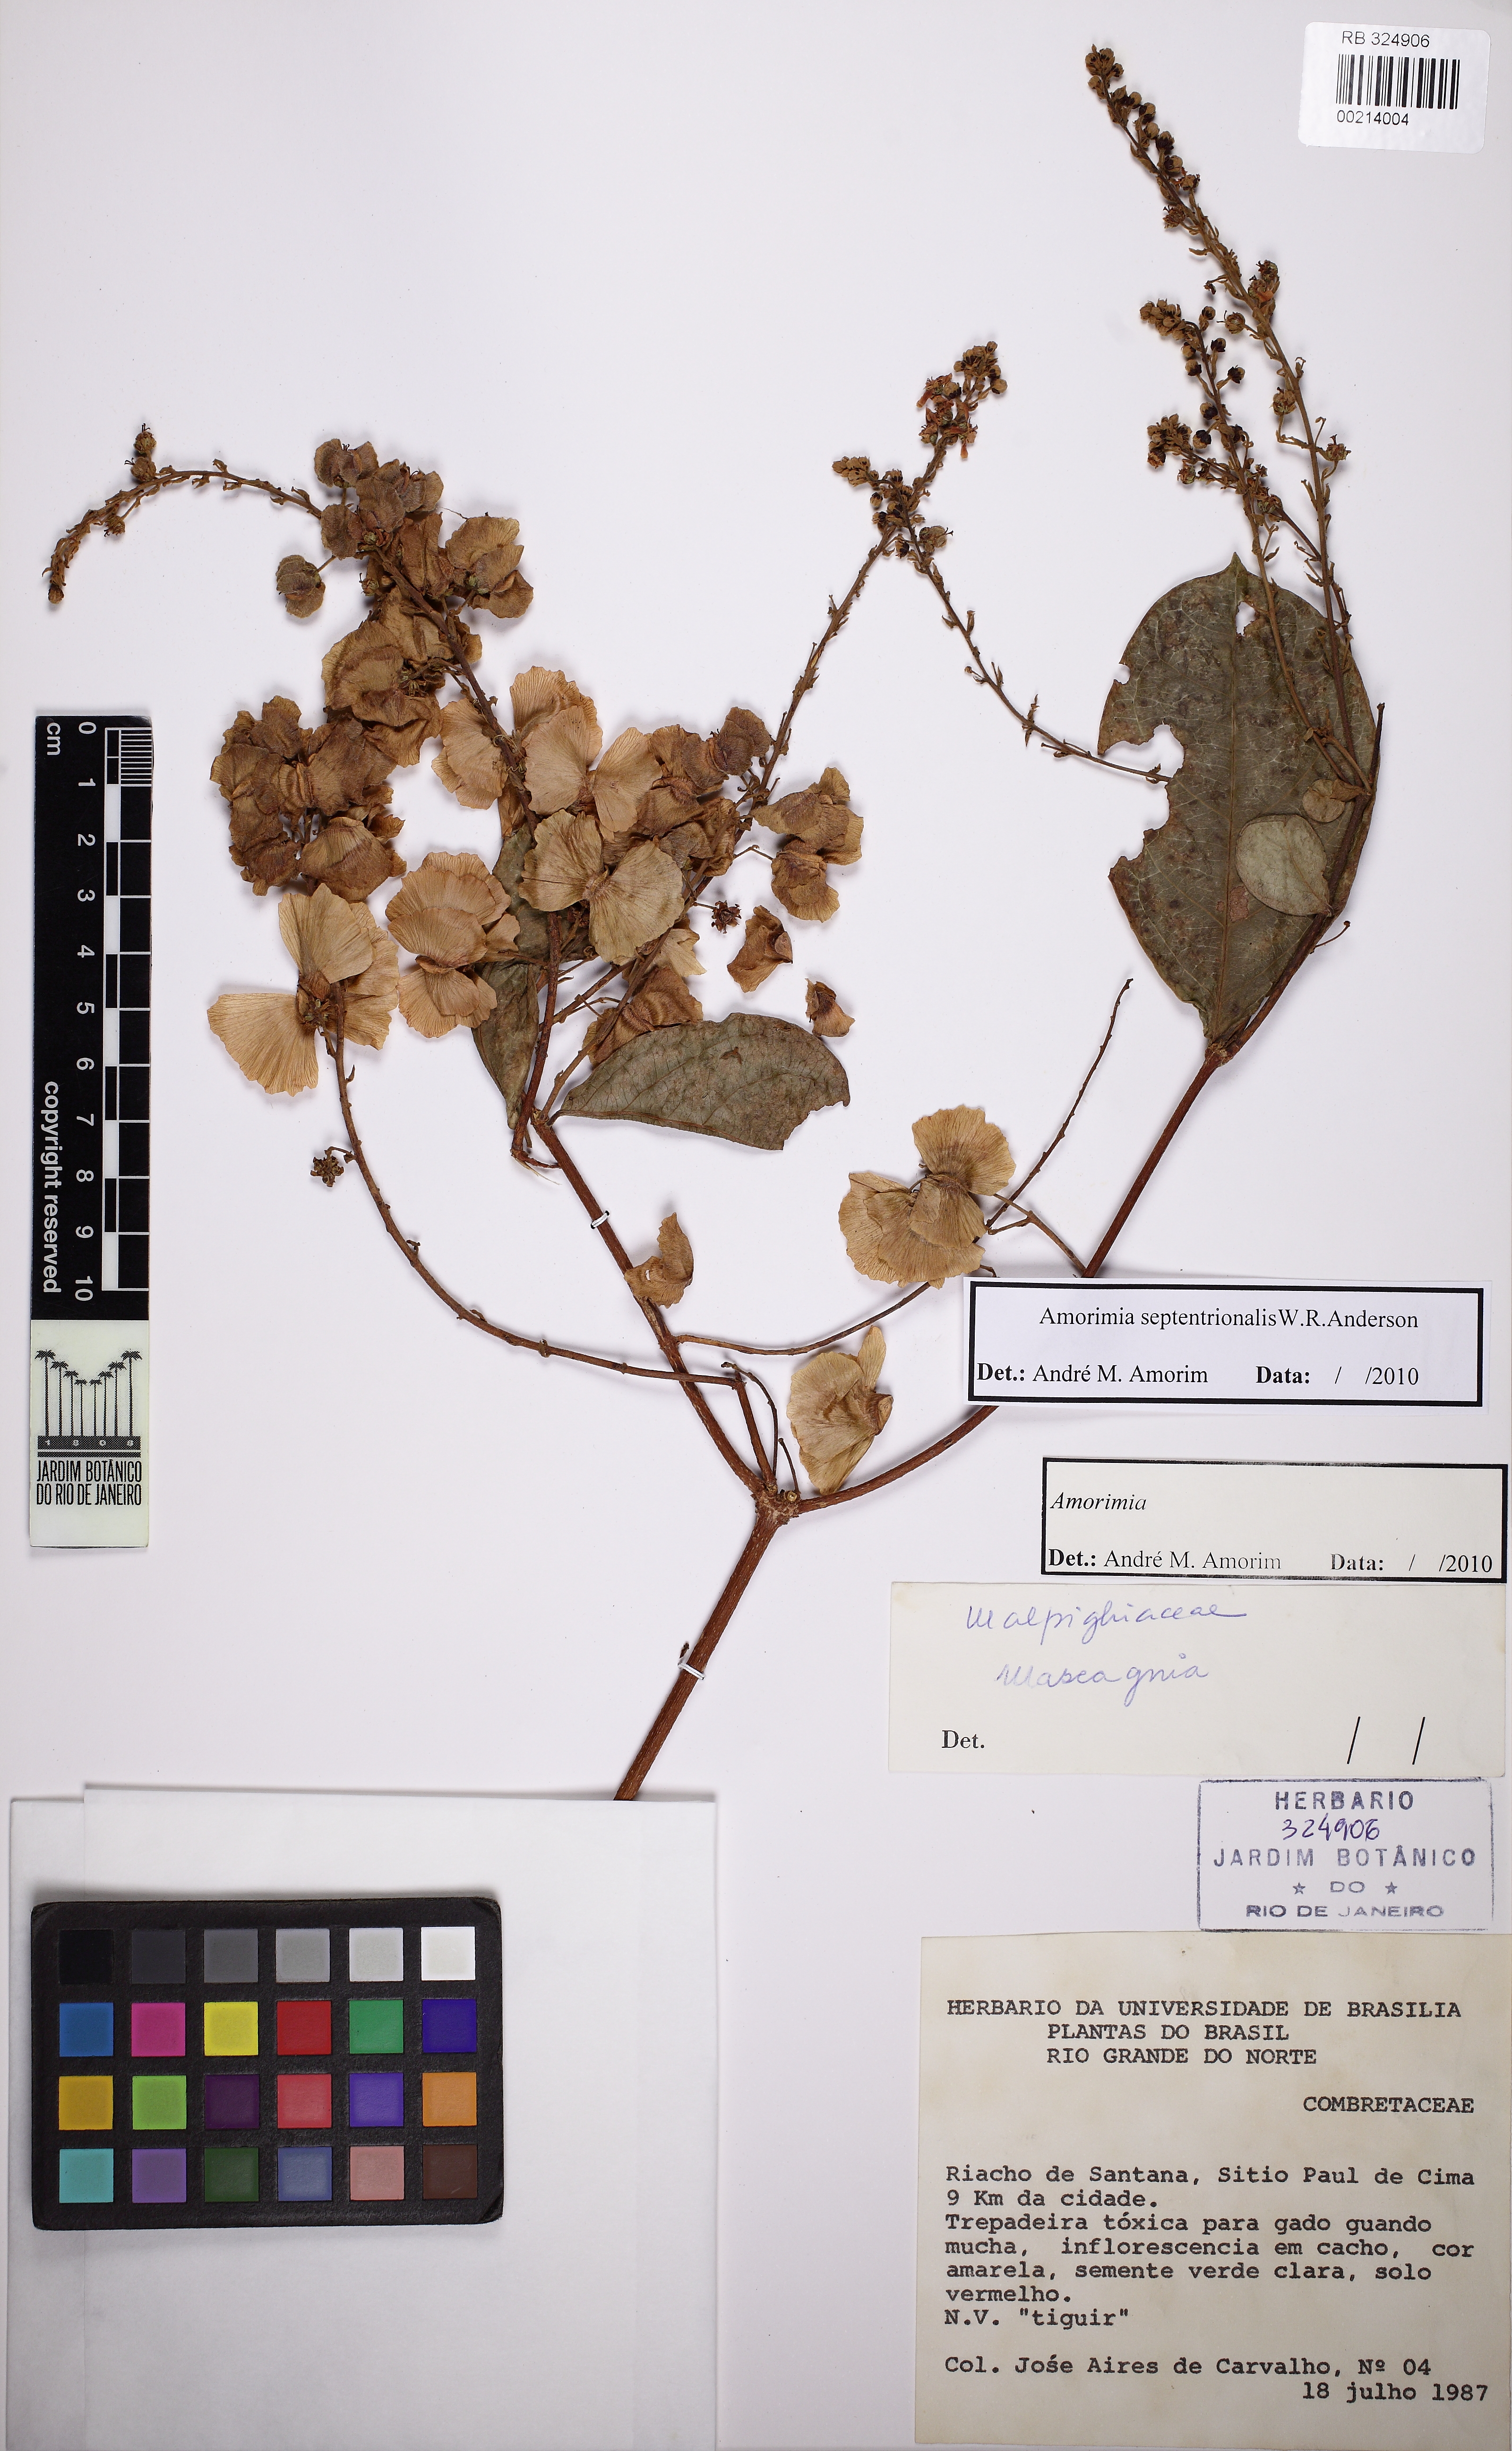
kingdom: Plantae
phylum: Tracheophyta
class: Magnoliopsida
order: Malpighiales
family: Malpighiaceae
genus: Amorimia
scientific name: Amorimia septentrionalis
